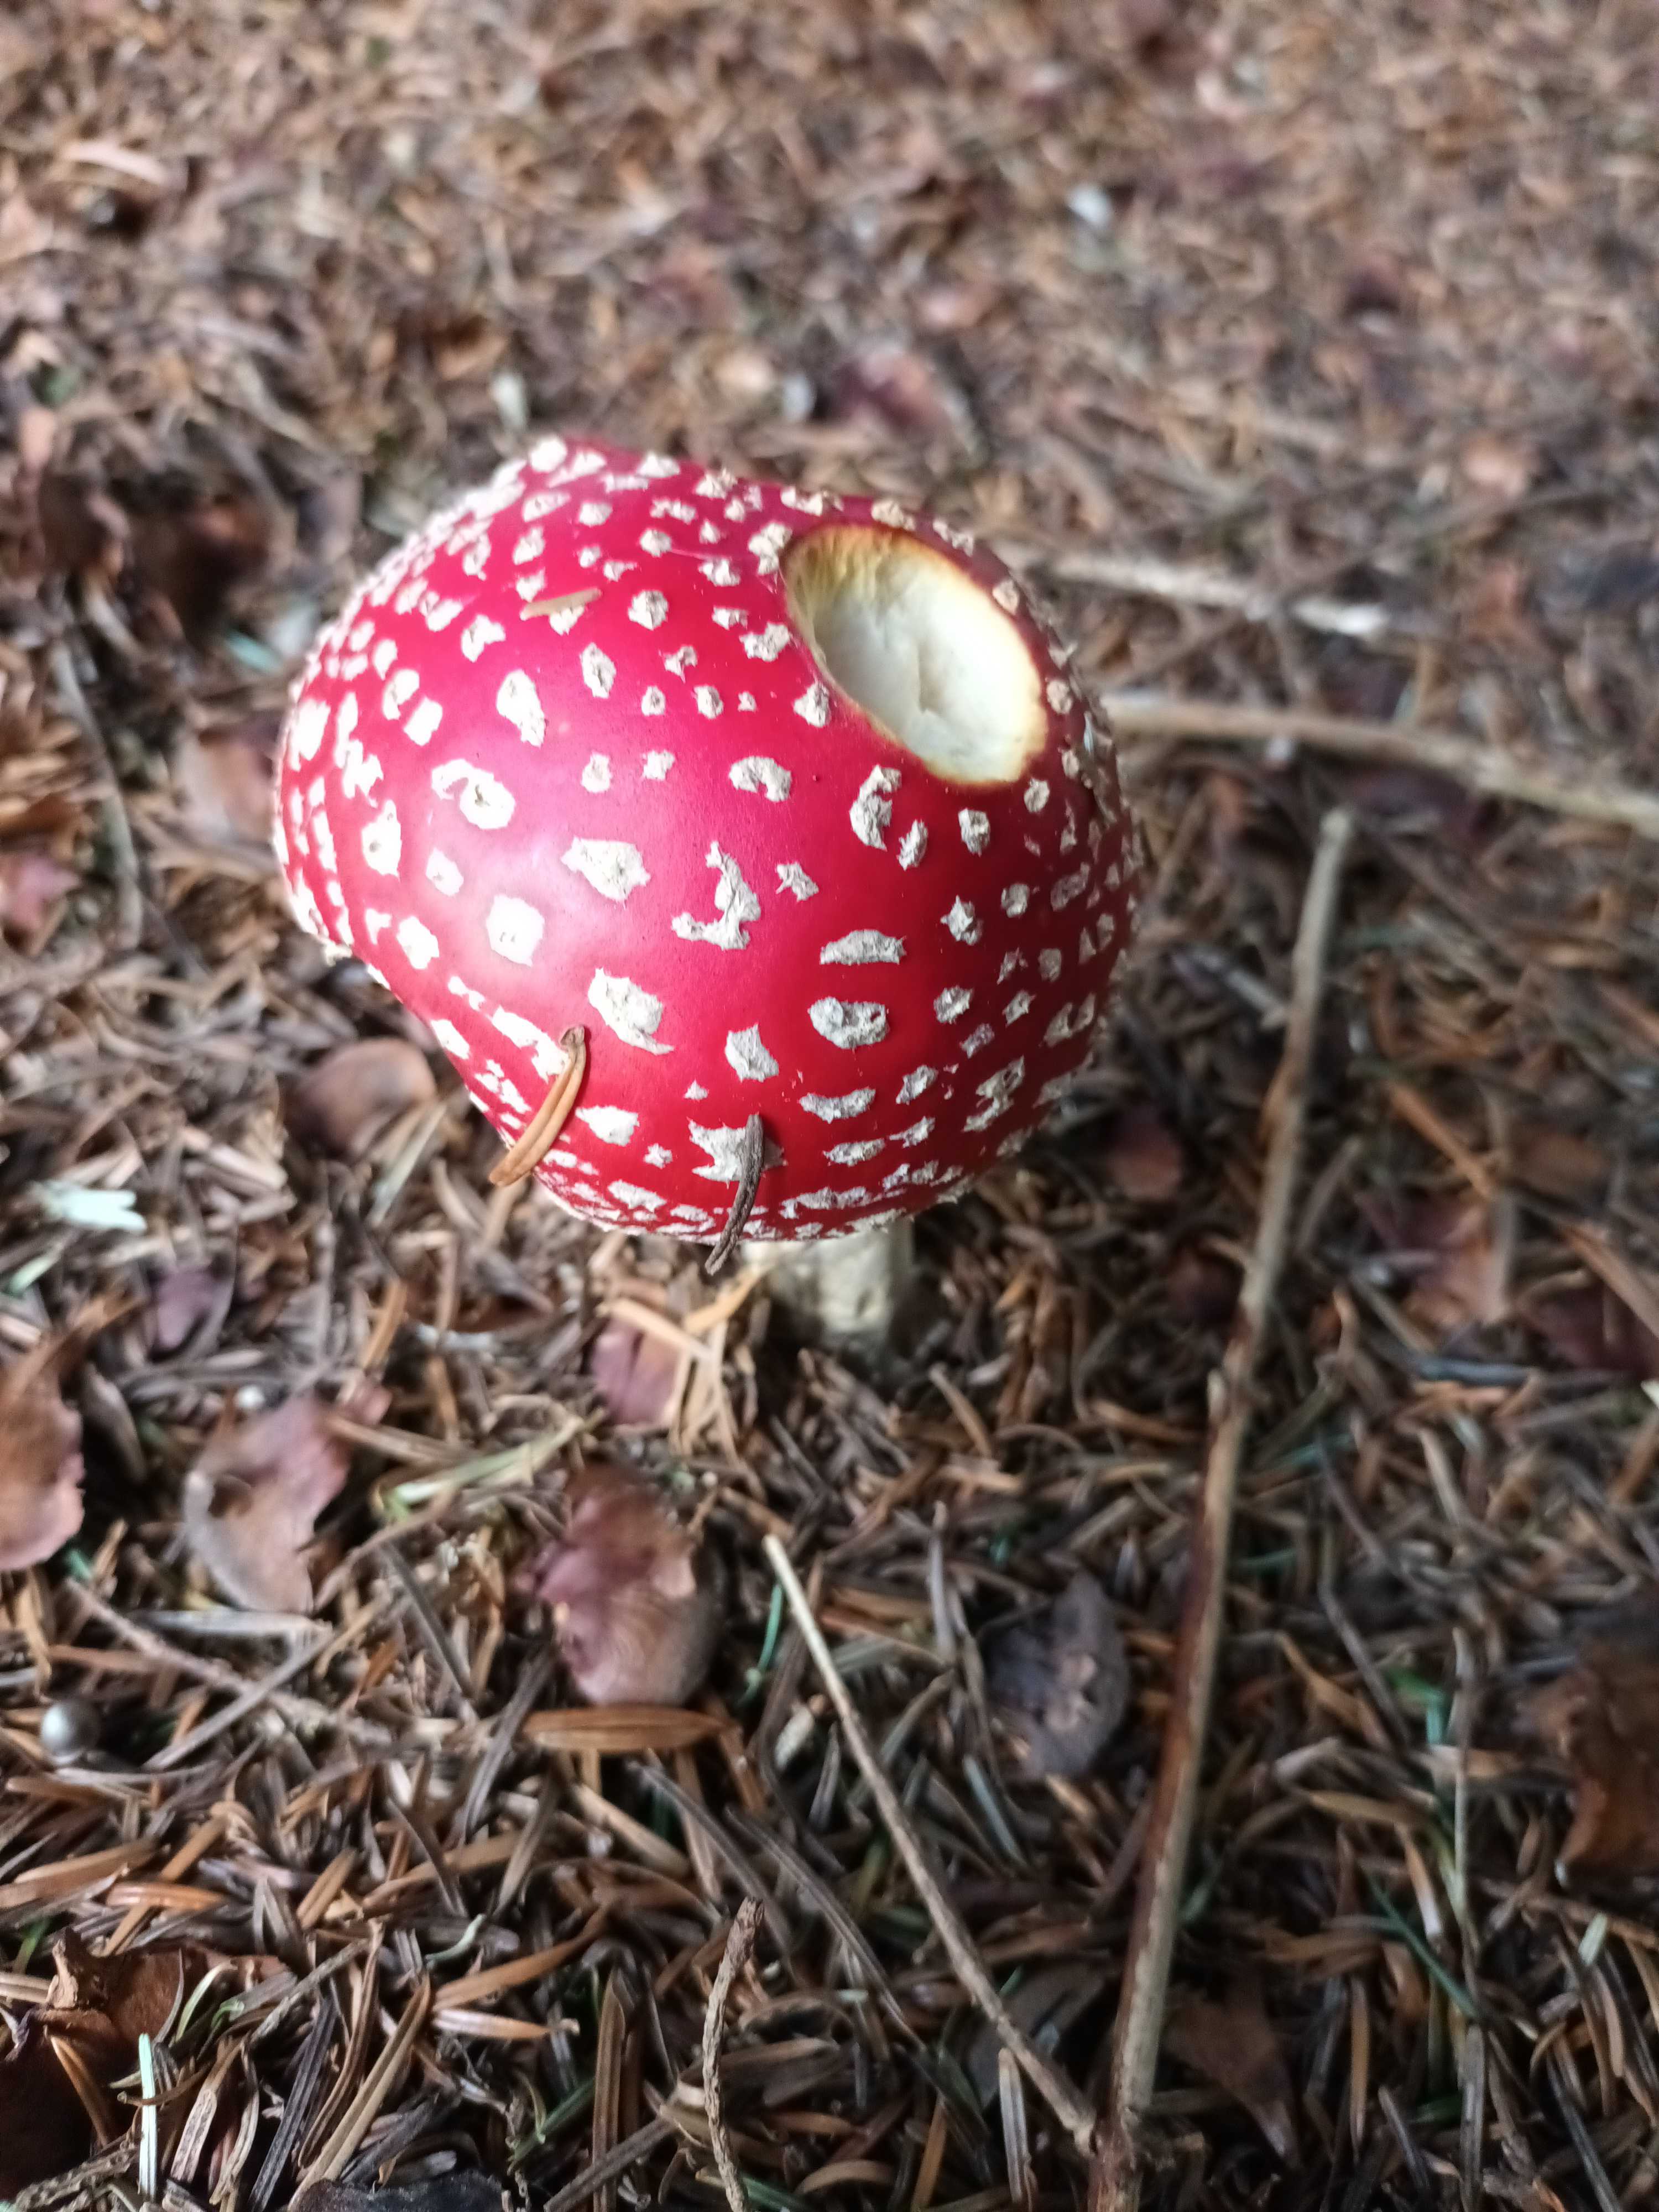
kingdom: Fungi
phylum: Basidiomycota
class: Agaricomycetes
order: Agaricales
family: Amanitaceae
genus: Amanita
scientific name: Amanita muscaria
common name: rød fluesvamp
